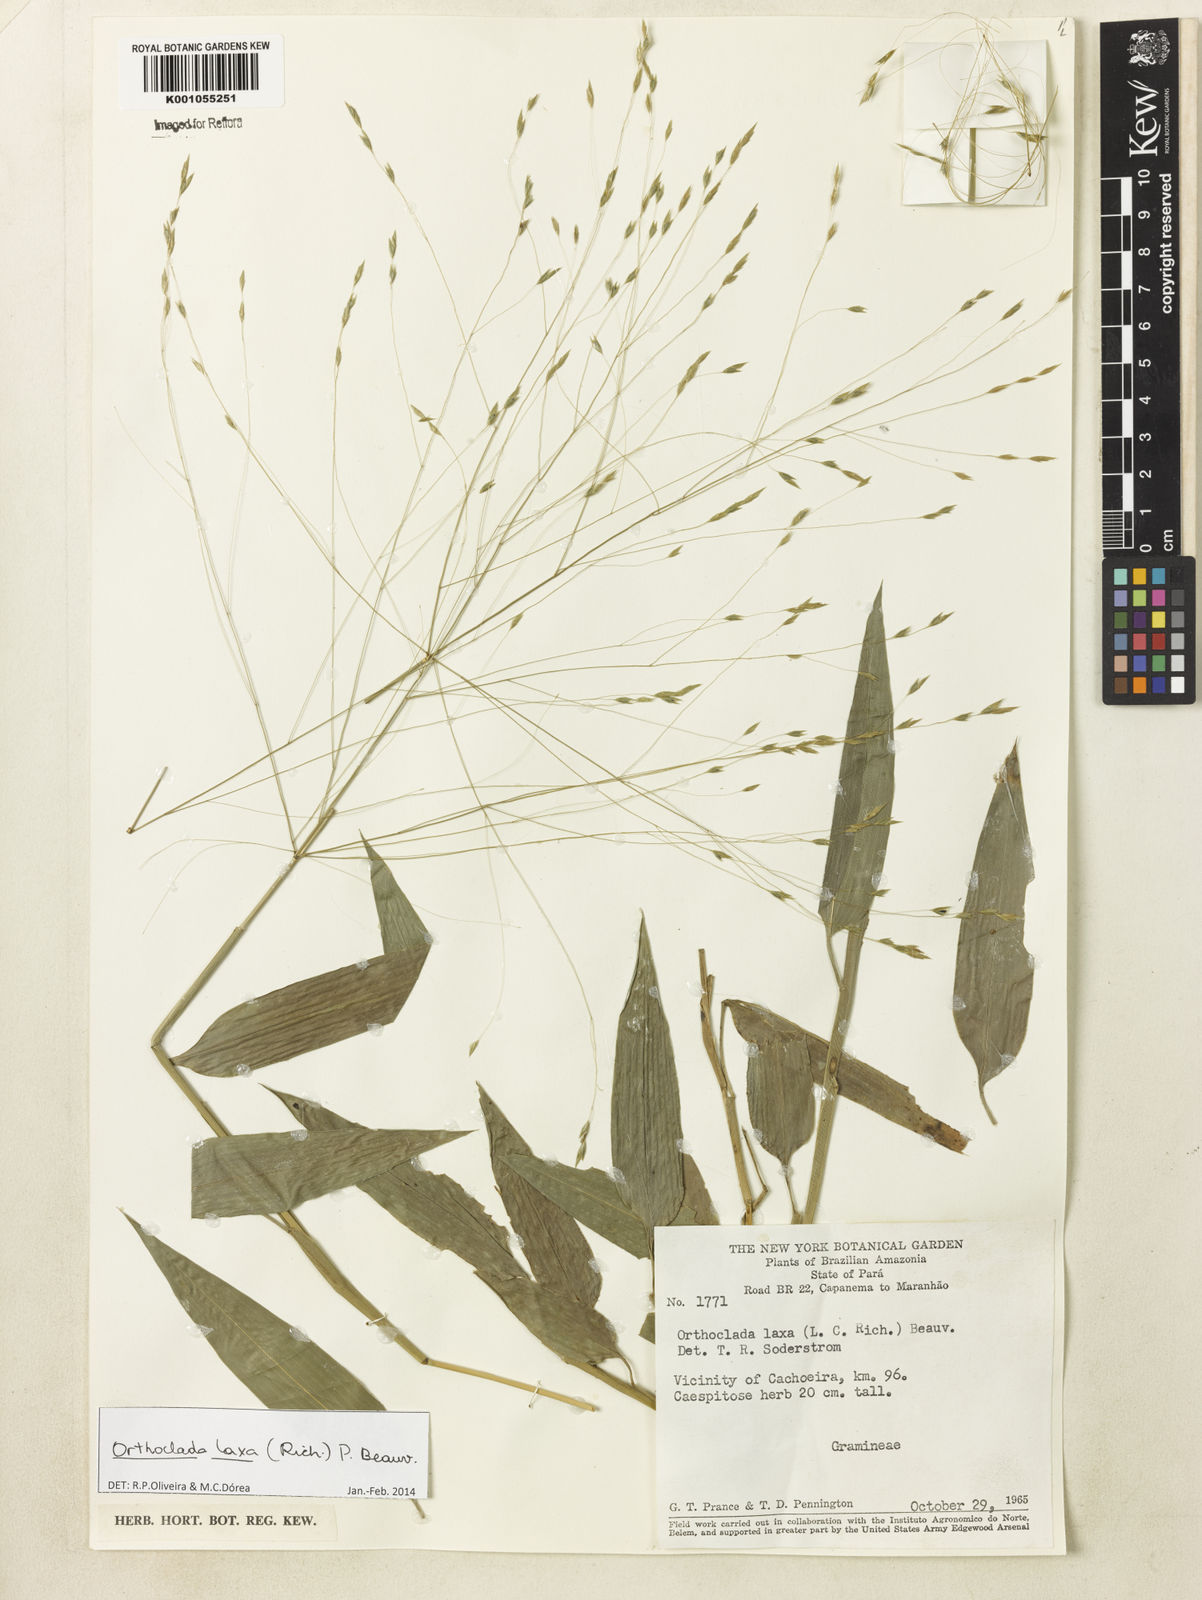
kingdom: Plantae
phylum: Tracheophyta
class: Liliopsida
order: Poales
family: Poaceae
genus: Orthoclada
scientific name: Orthoclada laxa
